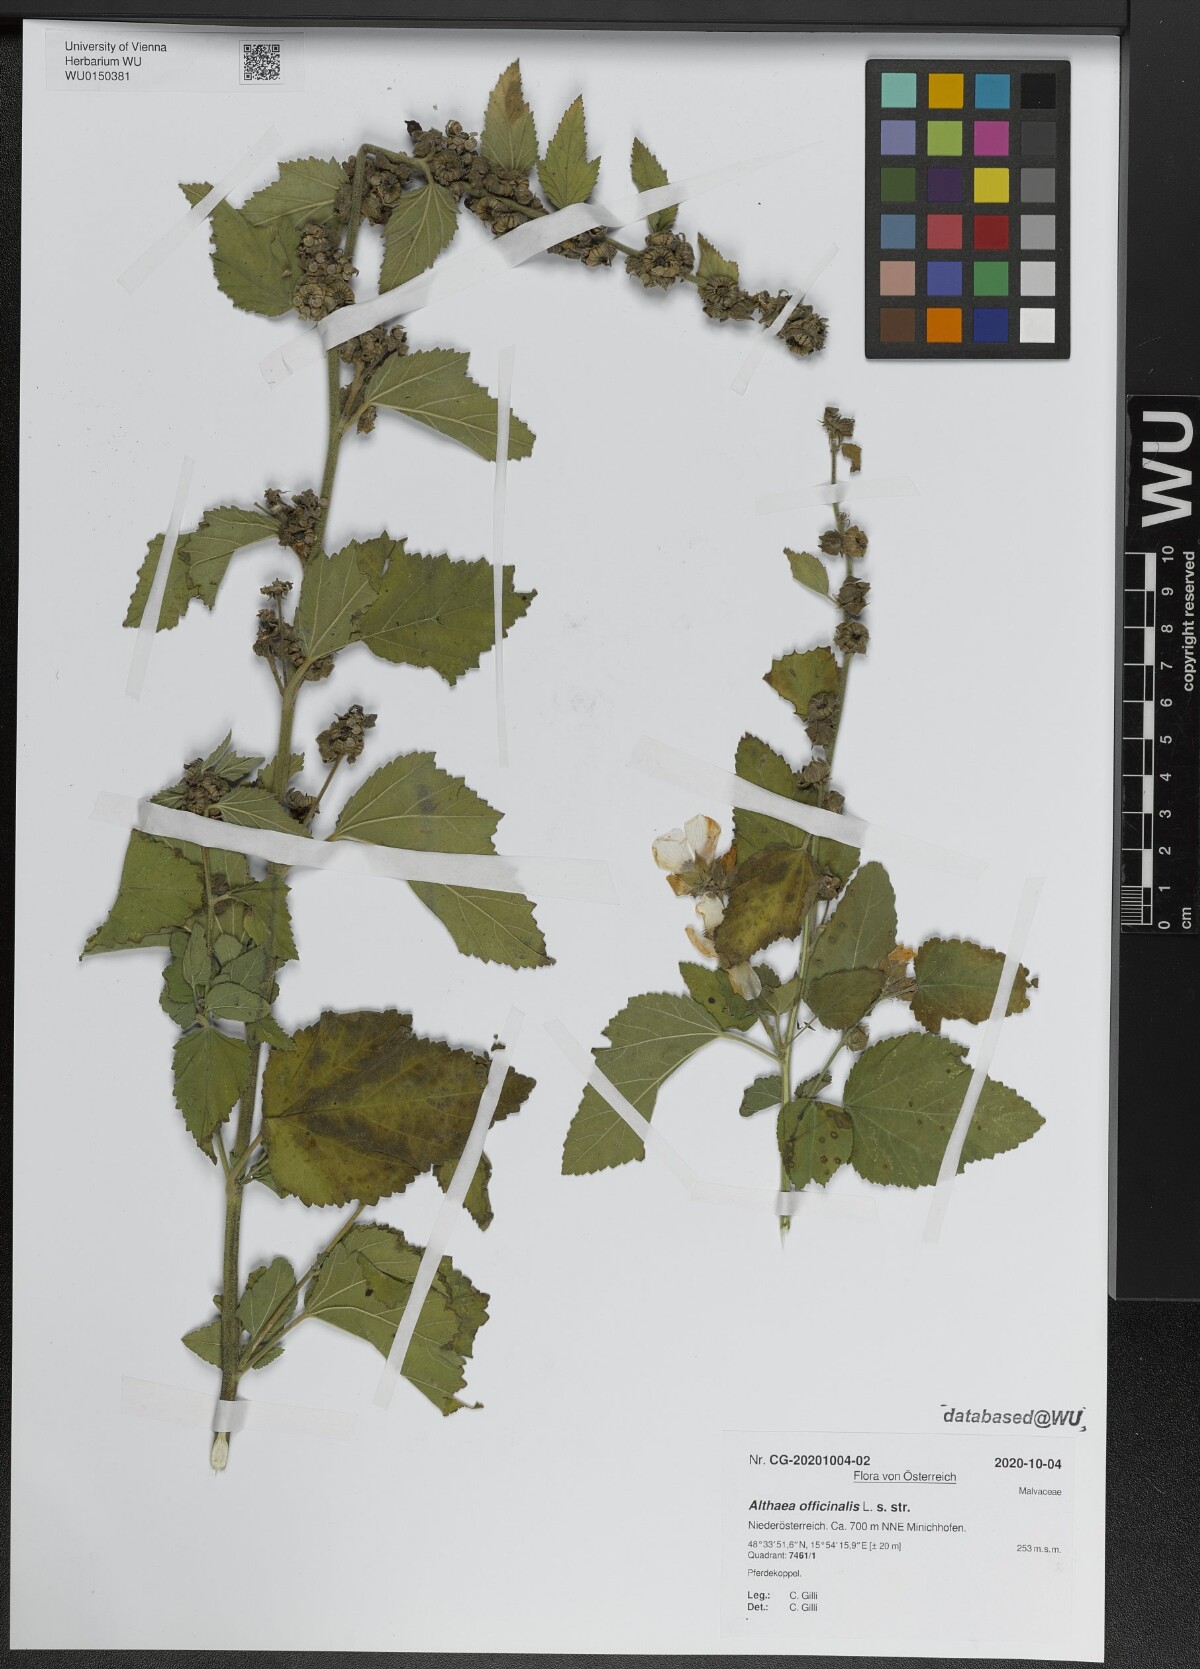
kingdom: Plantae
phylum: Tracheophyta
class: Magnoliopsida
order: Malvales
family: Malvaceae
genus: Althaea
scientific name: Althaea officinalis
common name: Marsh-mallow
